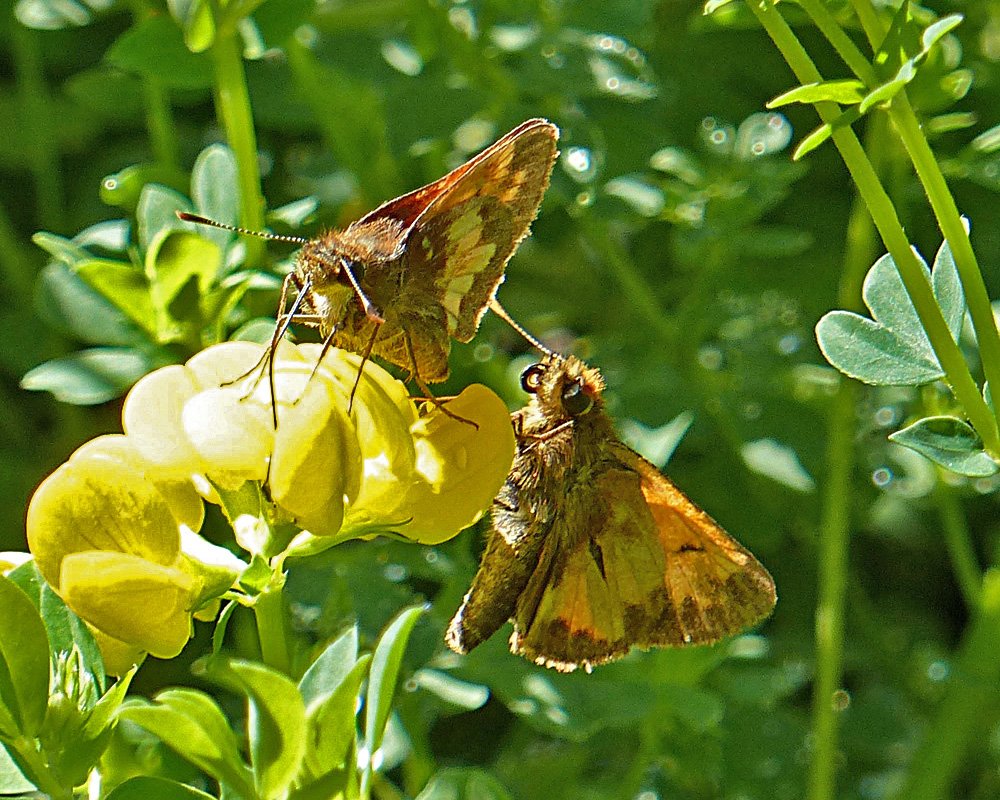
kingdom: Animalia
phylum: Arthropoda
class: Insecta
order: Lepidoptera
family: Hesperiidae
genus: Lon
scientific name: Lon hobomok
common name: Hobomok Skipper
